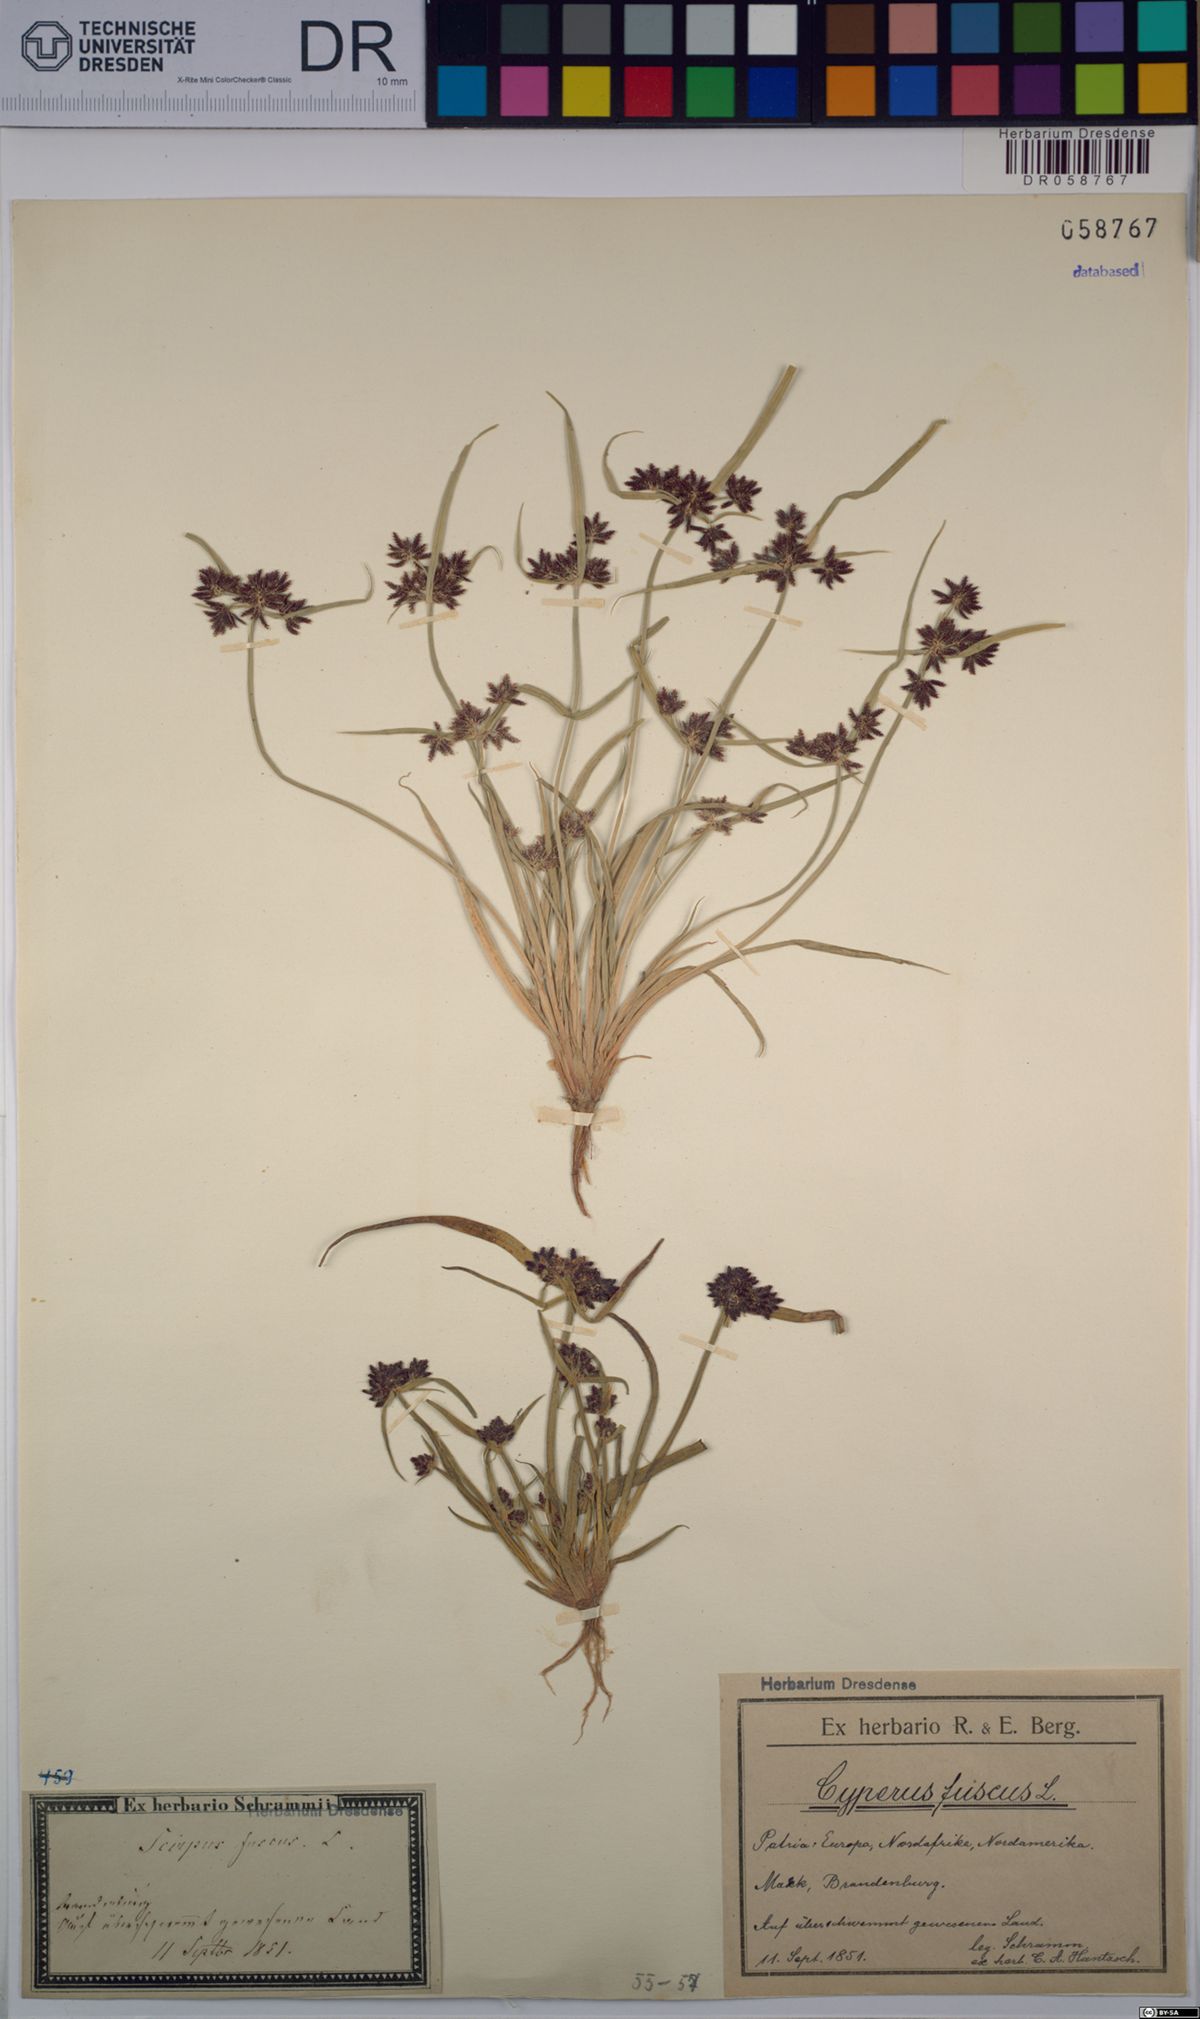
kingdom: Plantae
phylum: Tracheophyta
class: Liliopsida
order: Poales
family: Cyperaceae
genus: Cyperus
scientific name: Cyperus fuscus
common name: Brown galingale
